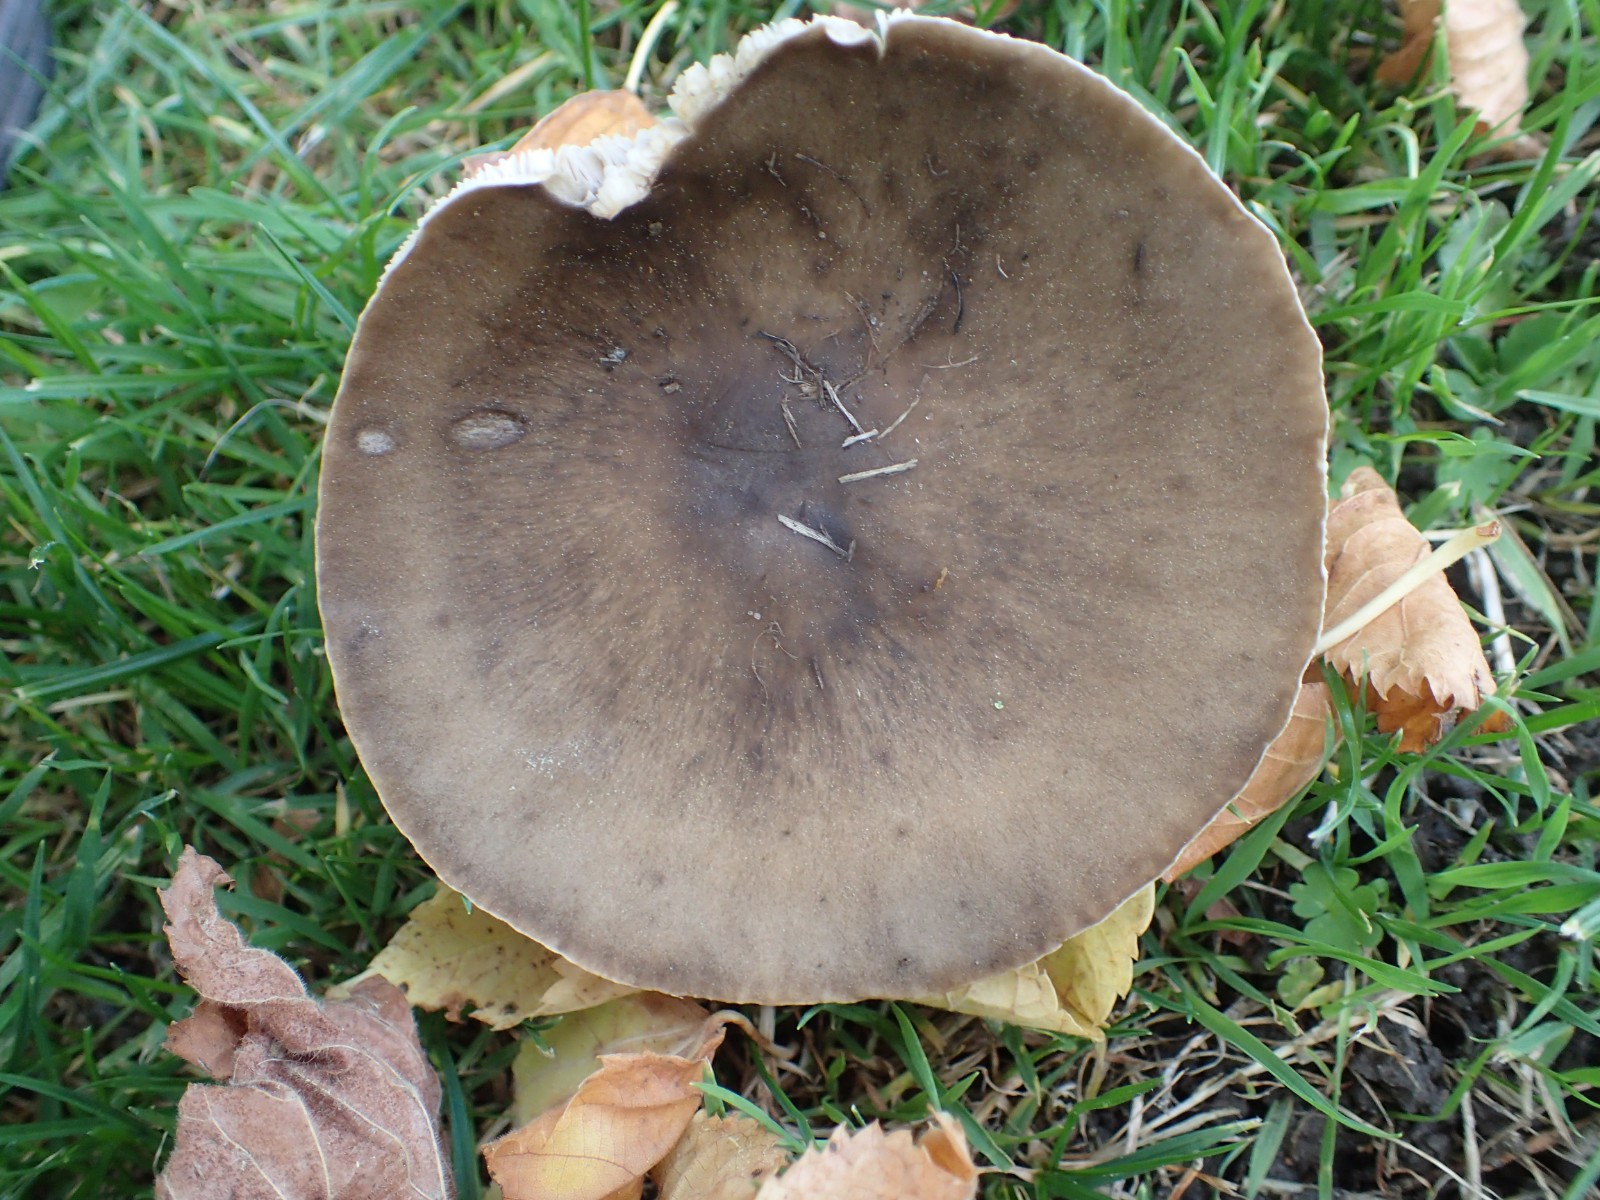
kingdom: Fungi
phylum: Basidiomycota
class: Agaricomycetes
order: Agaricales
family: Tricholomataceae
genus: Melanoleuca
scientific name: Melanoleuca
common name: munkehat
